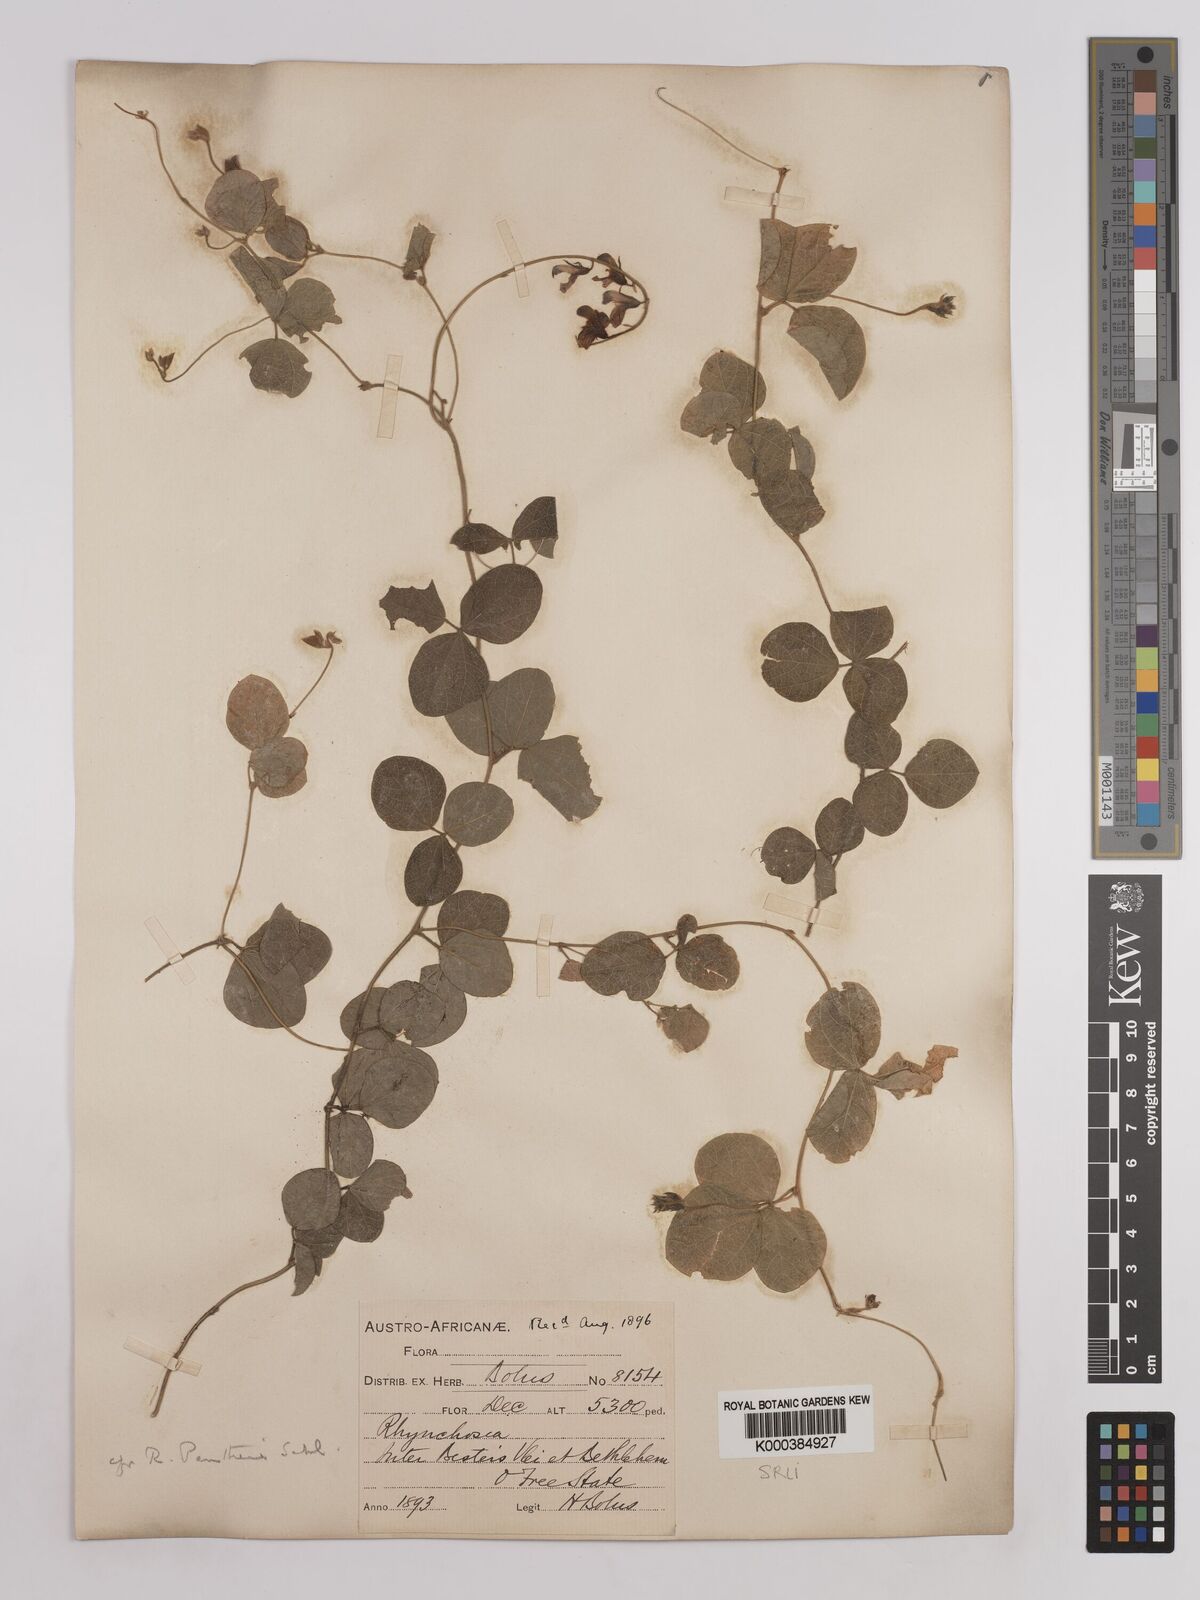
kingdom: Plantae
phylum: Tracheophyta
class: Magnoliopsida
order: Fabales
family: Fabaceae
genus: Rhynchosia
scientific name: Rhynchosia pentheri
